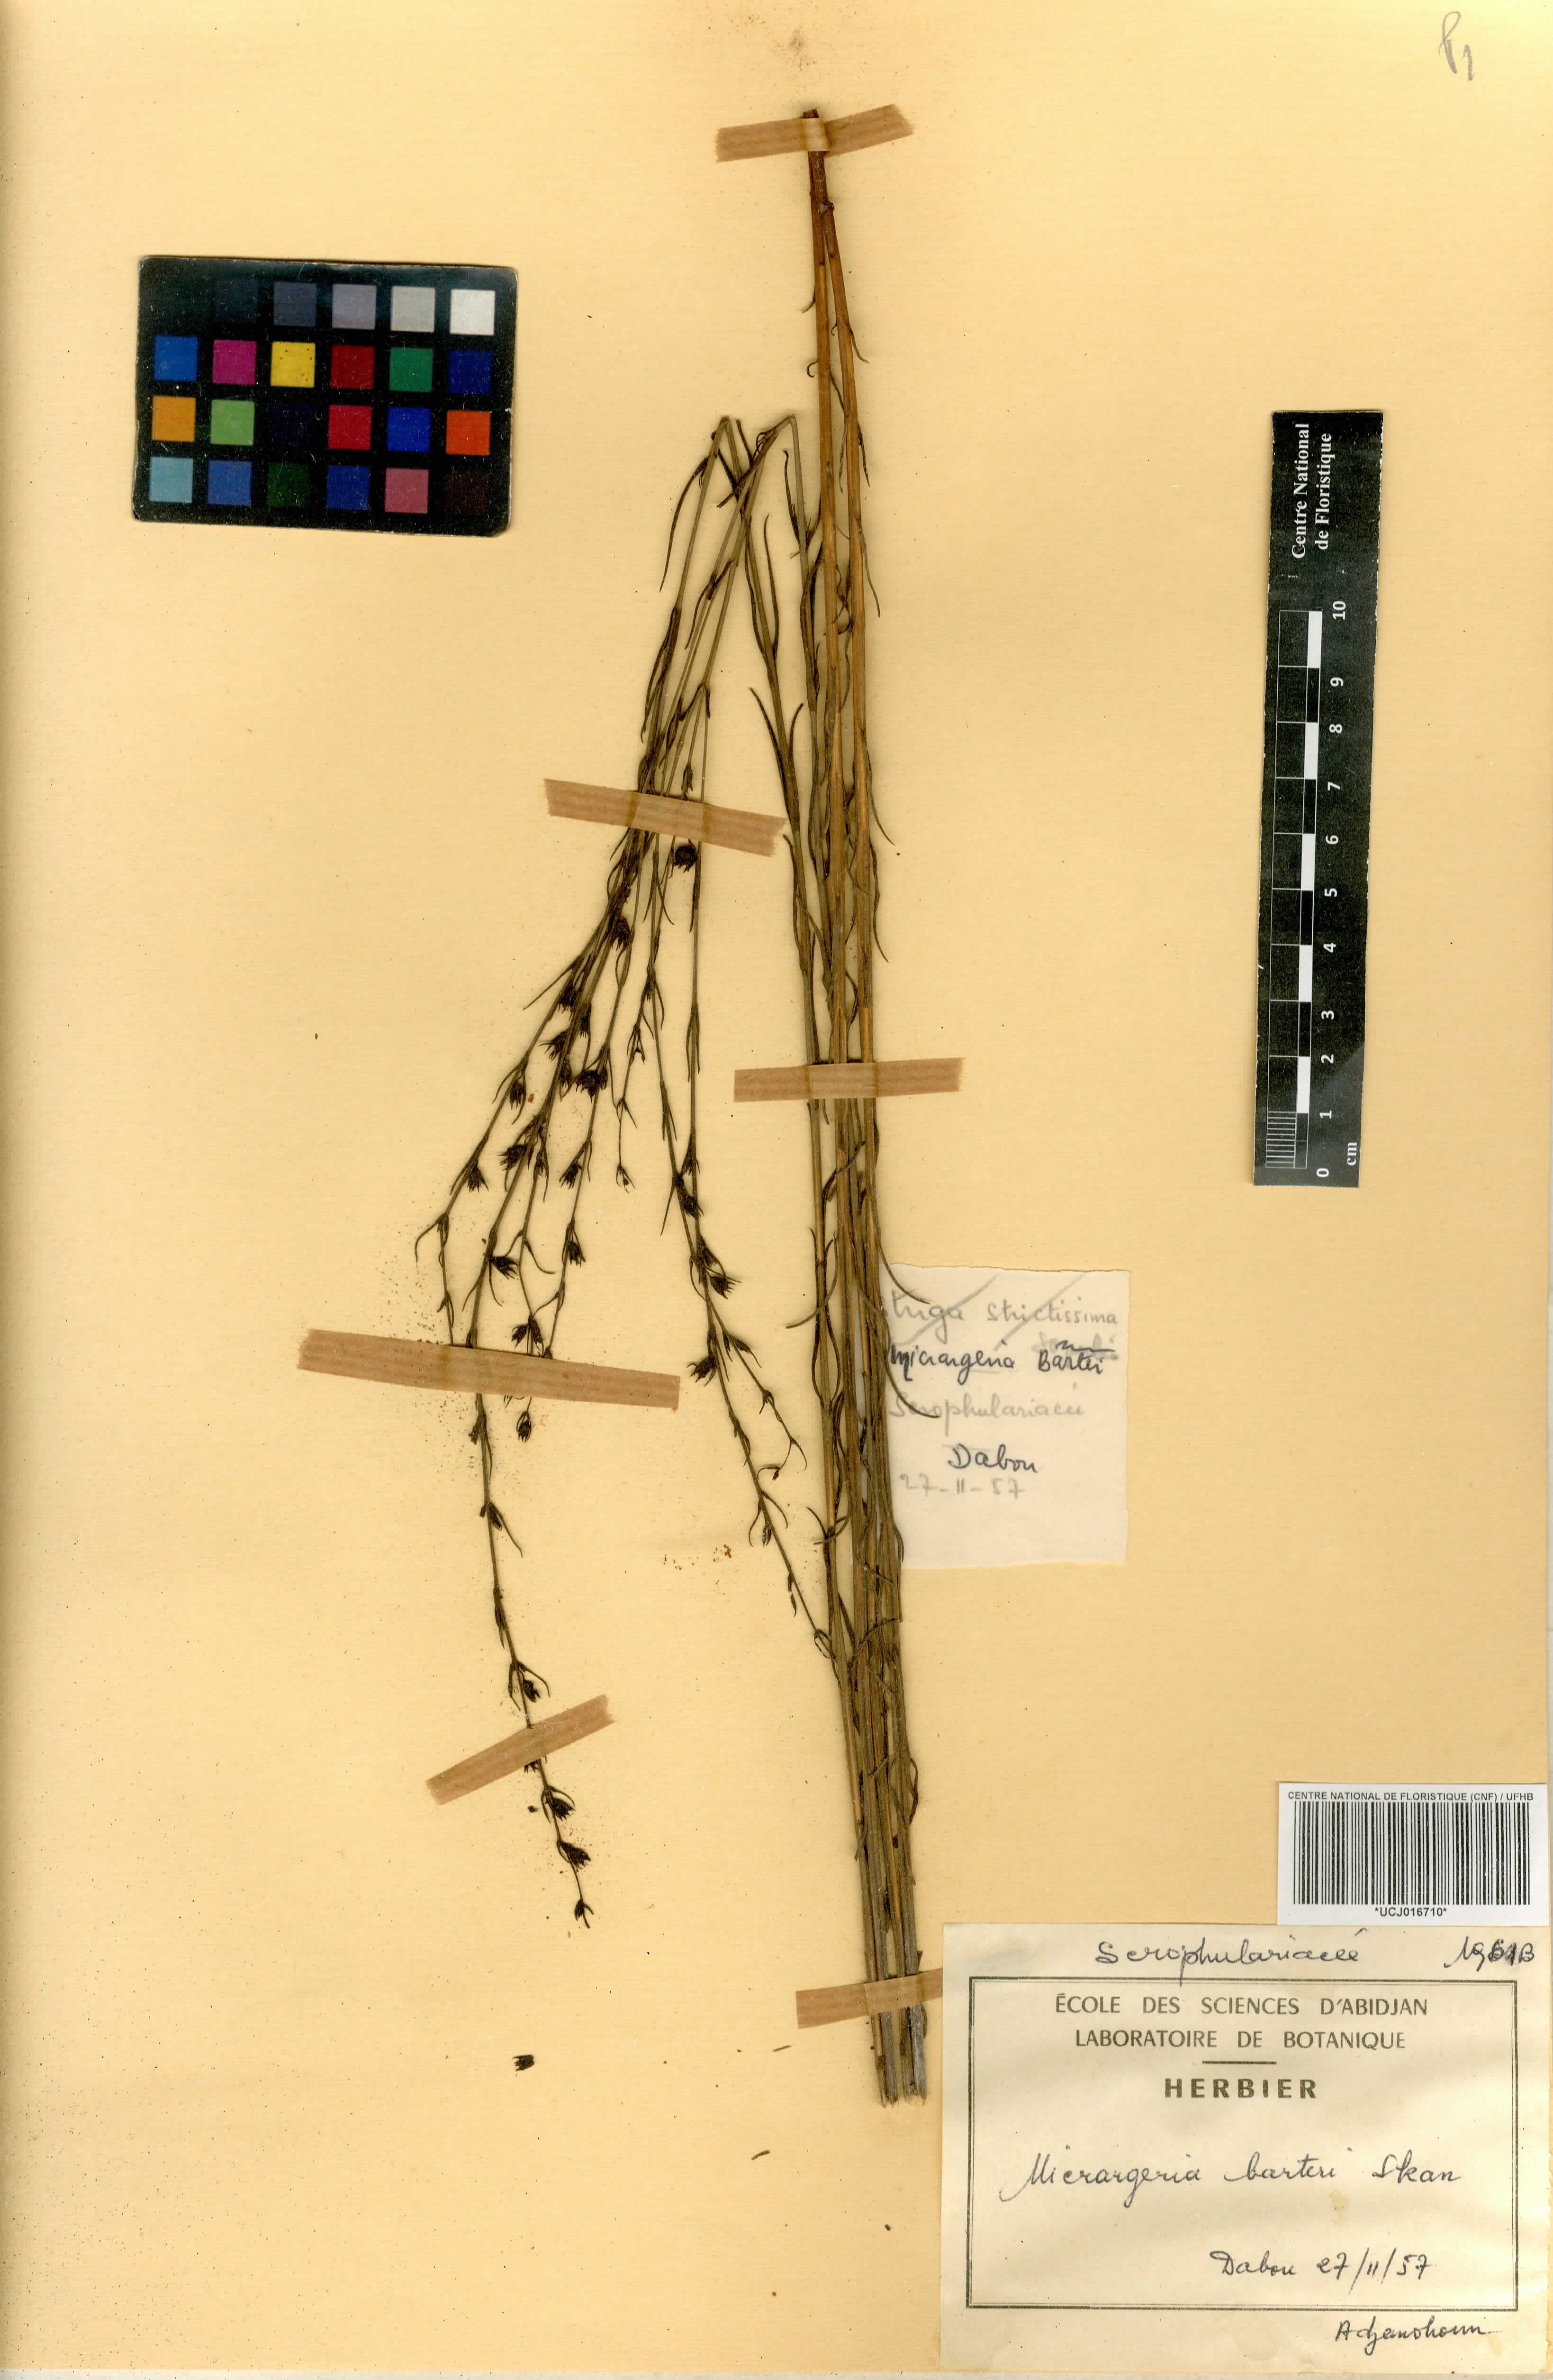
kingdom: Plantae
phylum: Tracheophyta
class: Magnoliopsida
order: Lamiales
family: Orobanchaceae
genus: Micrargeria
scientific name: Micrargeria filiformis
